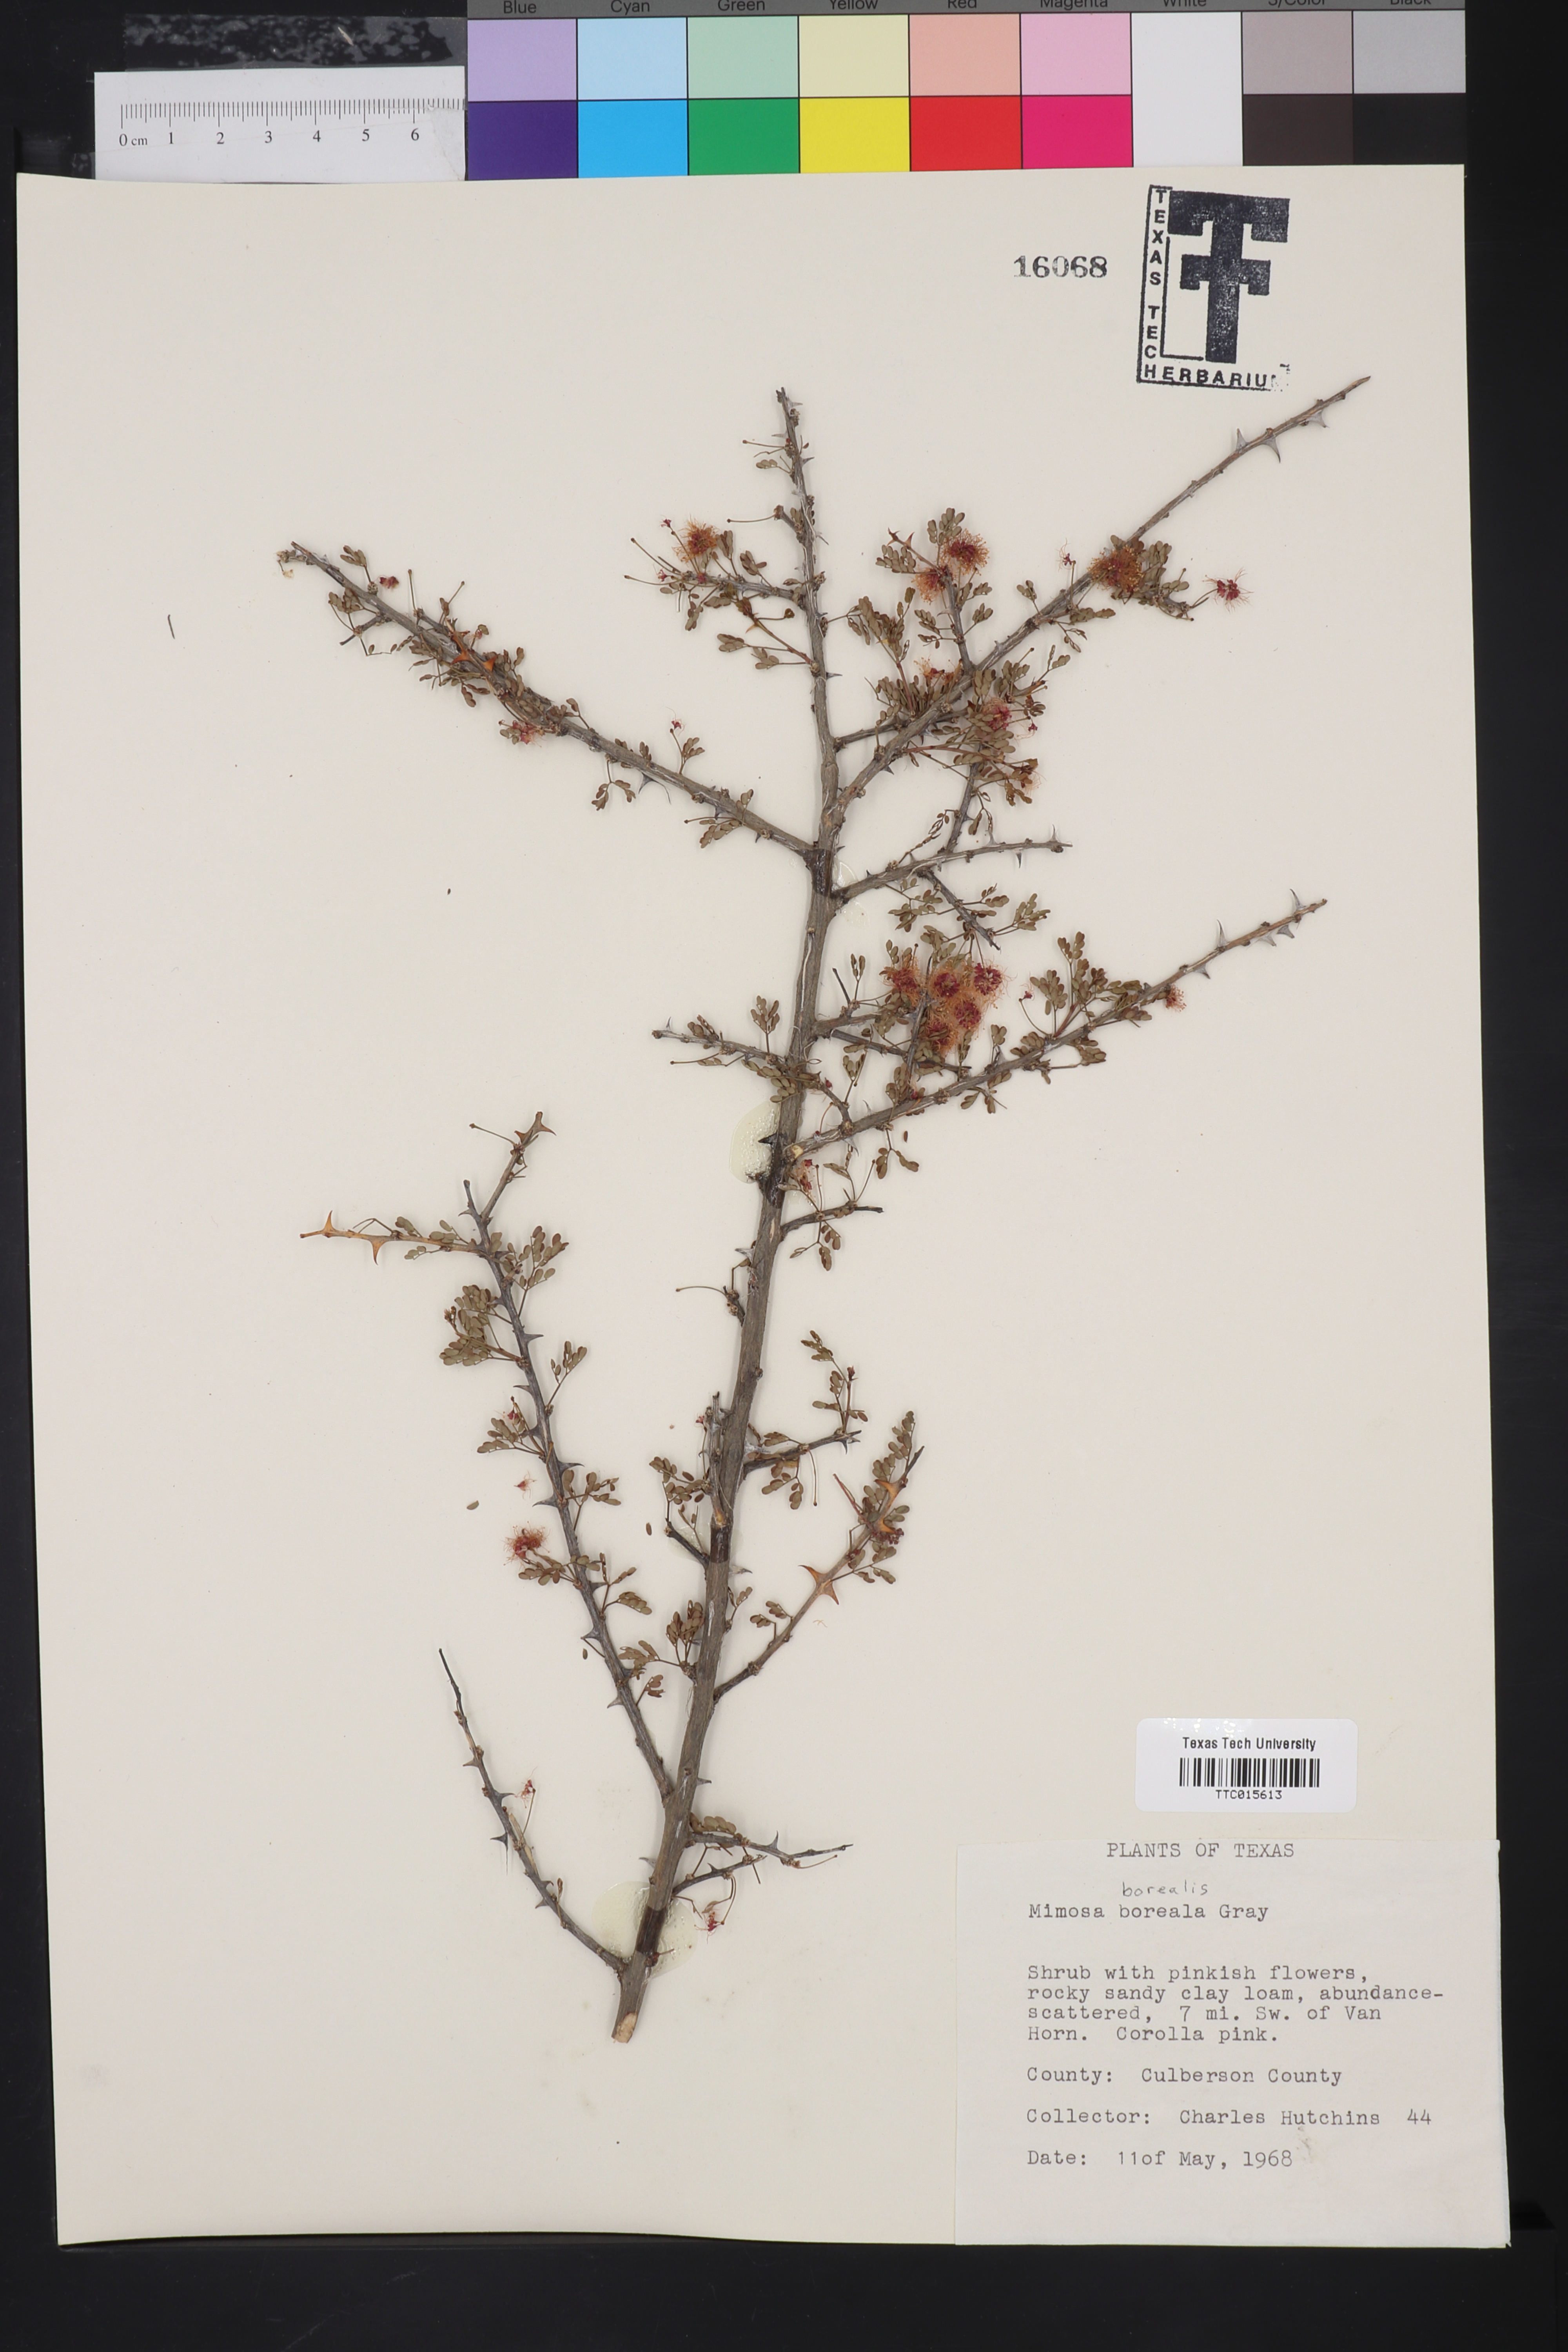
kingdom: Plantae
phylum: Tracheophyta
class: Magnoliopsida
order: Fabales
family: Fabaceae
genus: Mimosa
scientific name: Mimosa borealis
